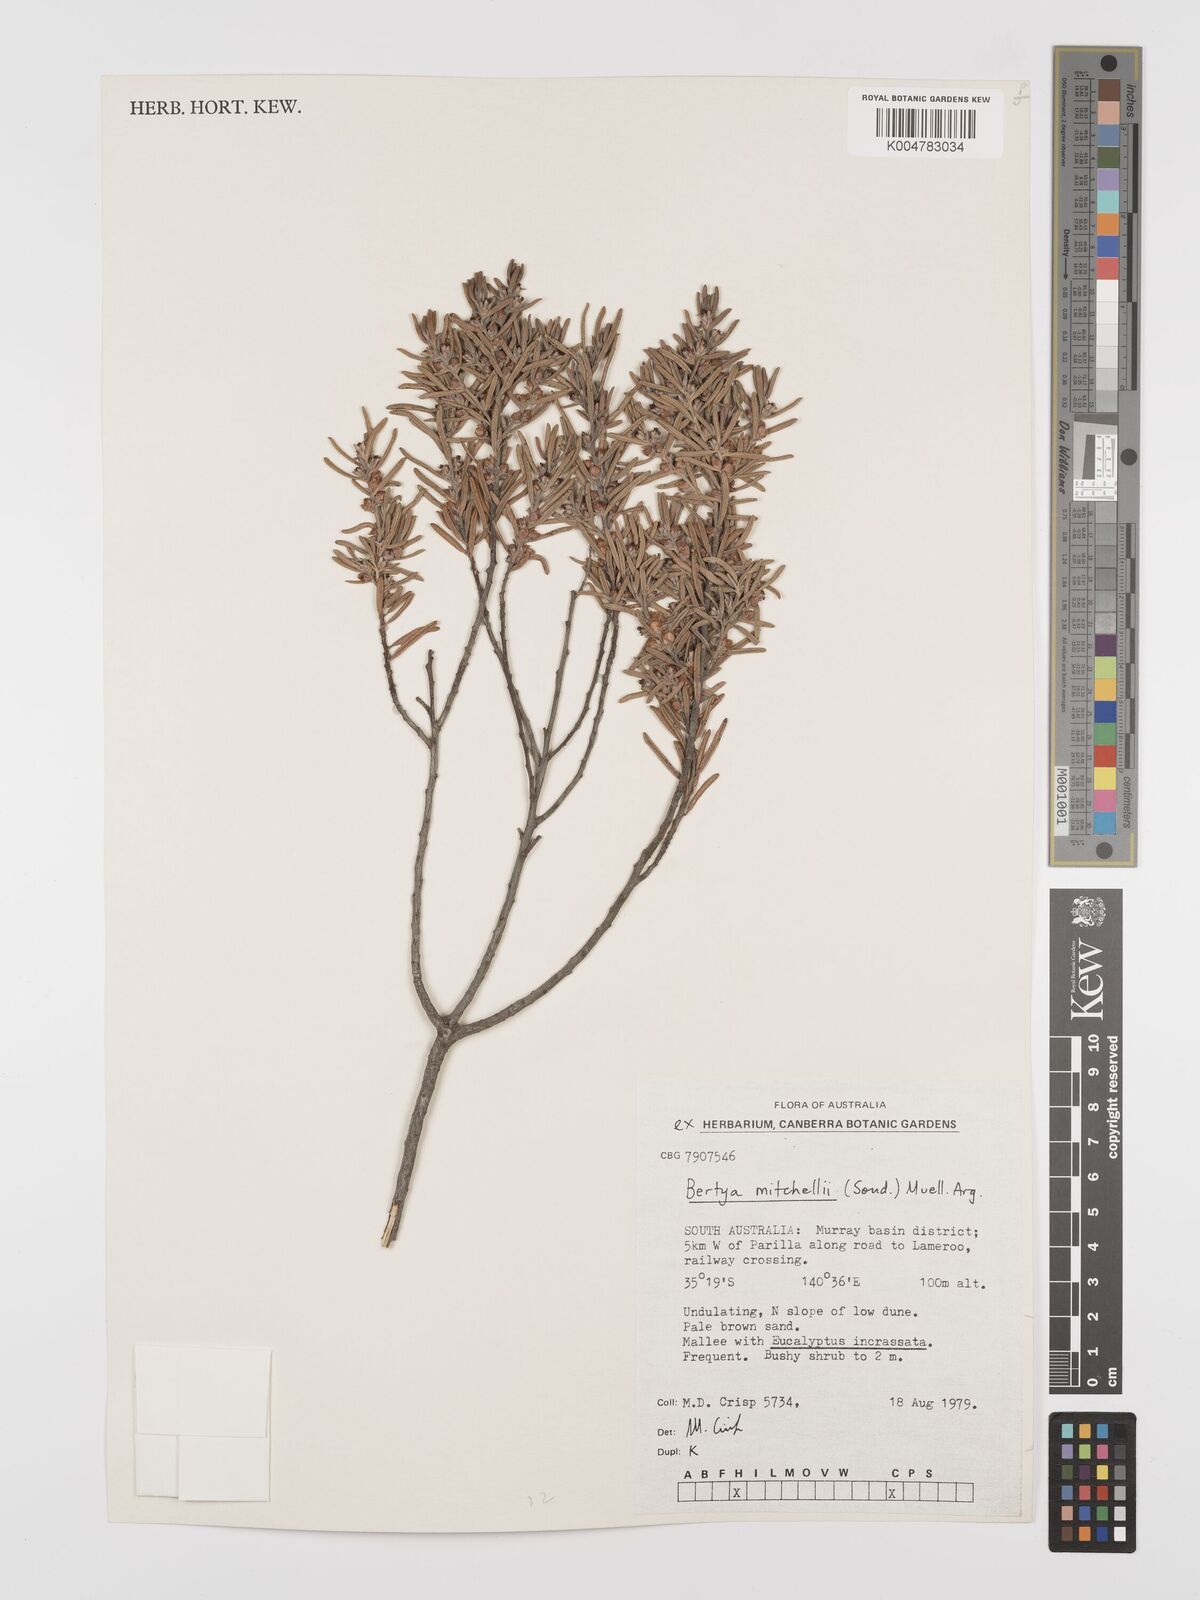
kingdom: Plantae
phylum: Tracheophyta
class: Magnoliopsida
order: Malpighiales
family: Euphorbiaceae
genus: Bertya
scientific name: Bertya oleifolia
